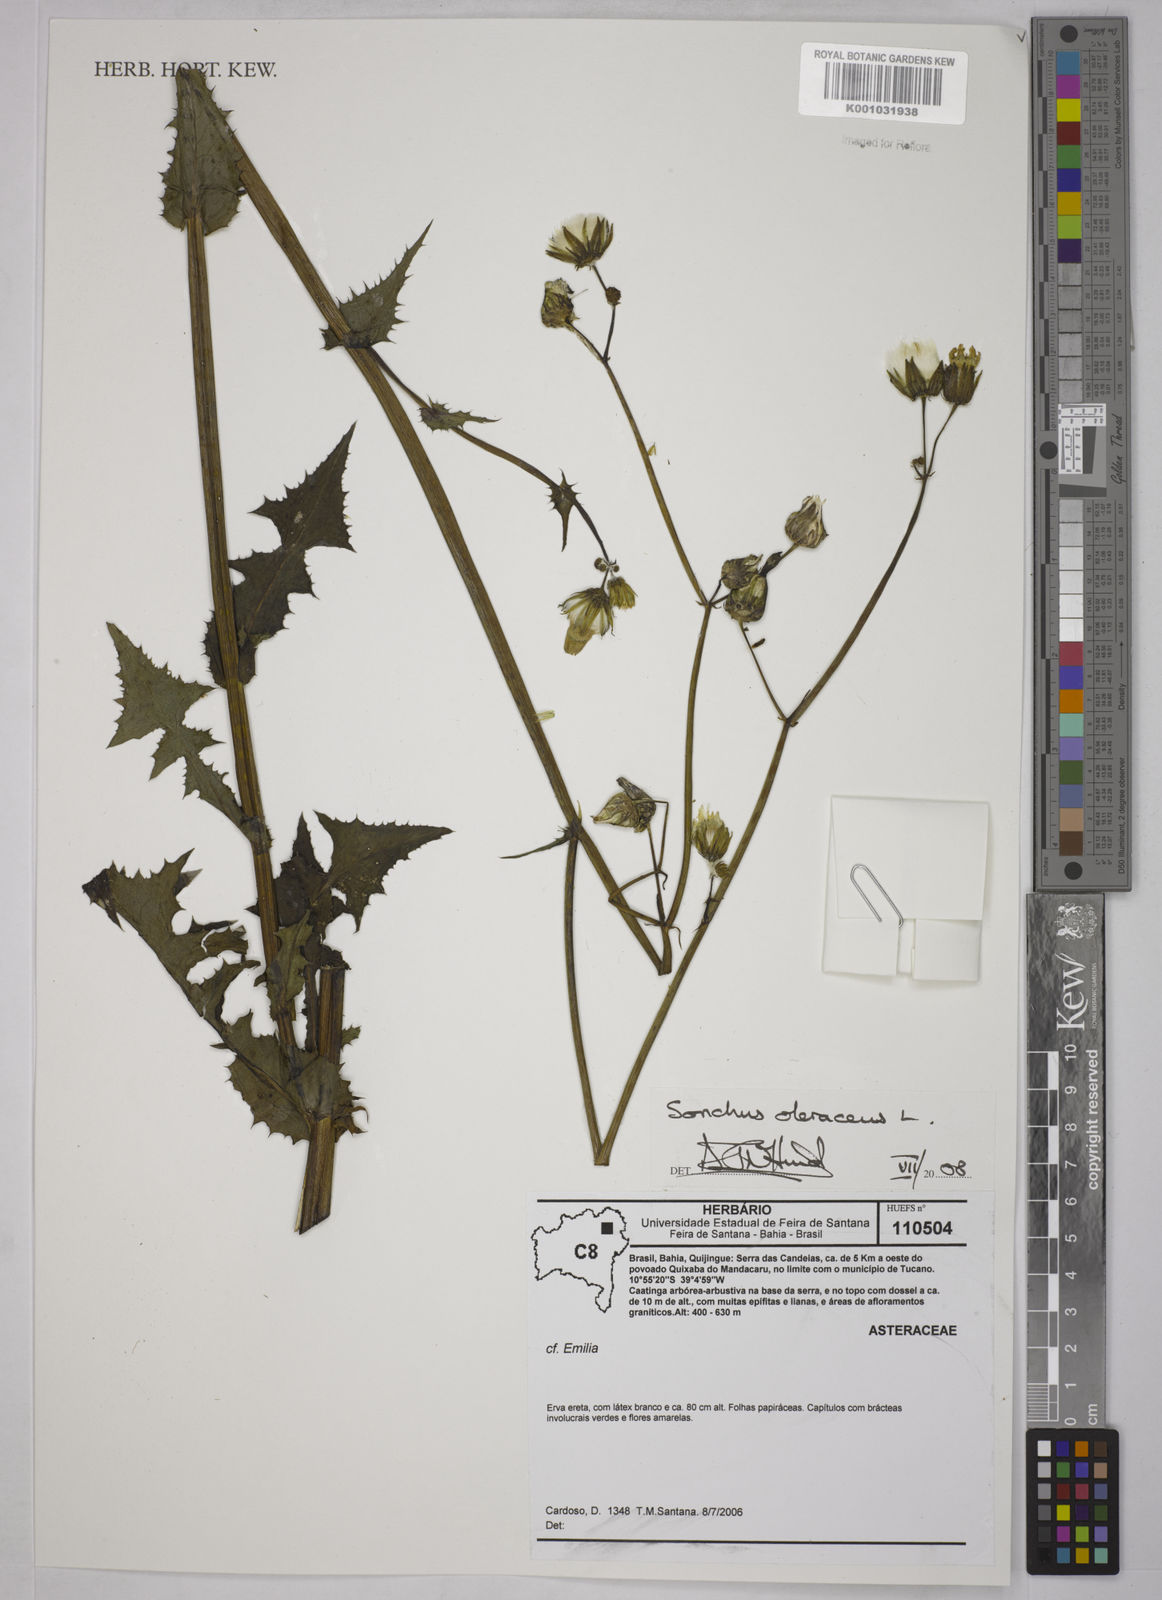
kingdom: Plantae
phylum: Tracheophyta
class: Magnoliopsida
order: Asterales
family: Asteraceae
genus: Sonchus
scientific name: Sonchus oleraceus
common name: Common sowthistle
